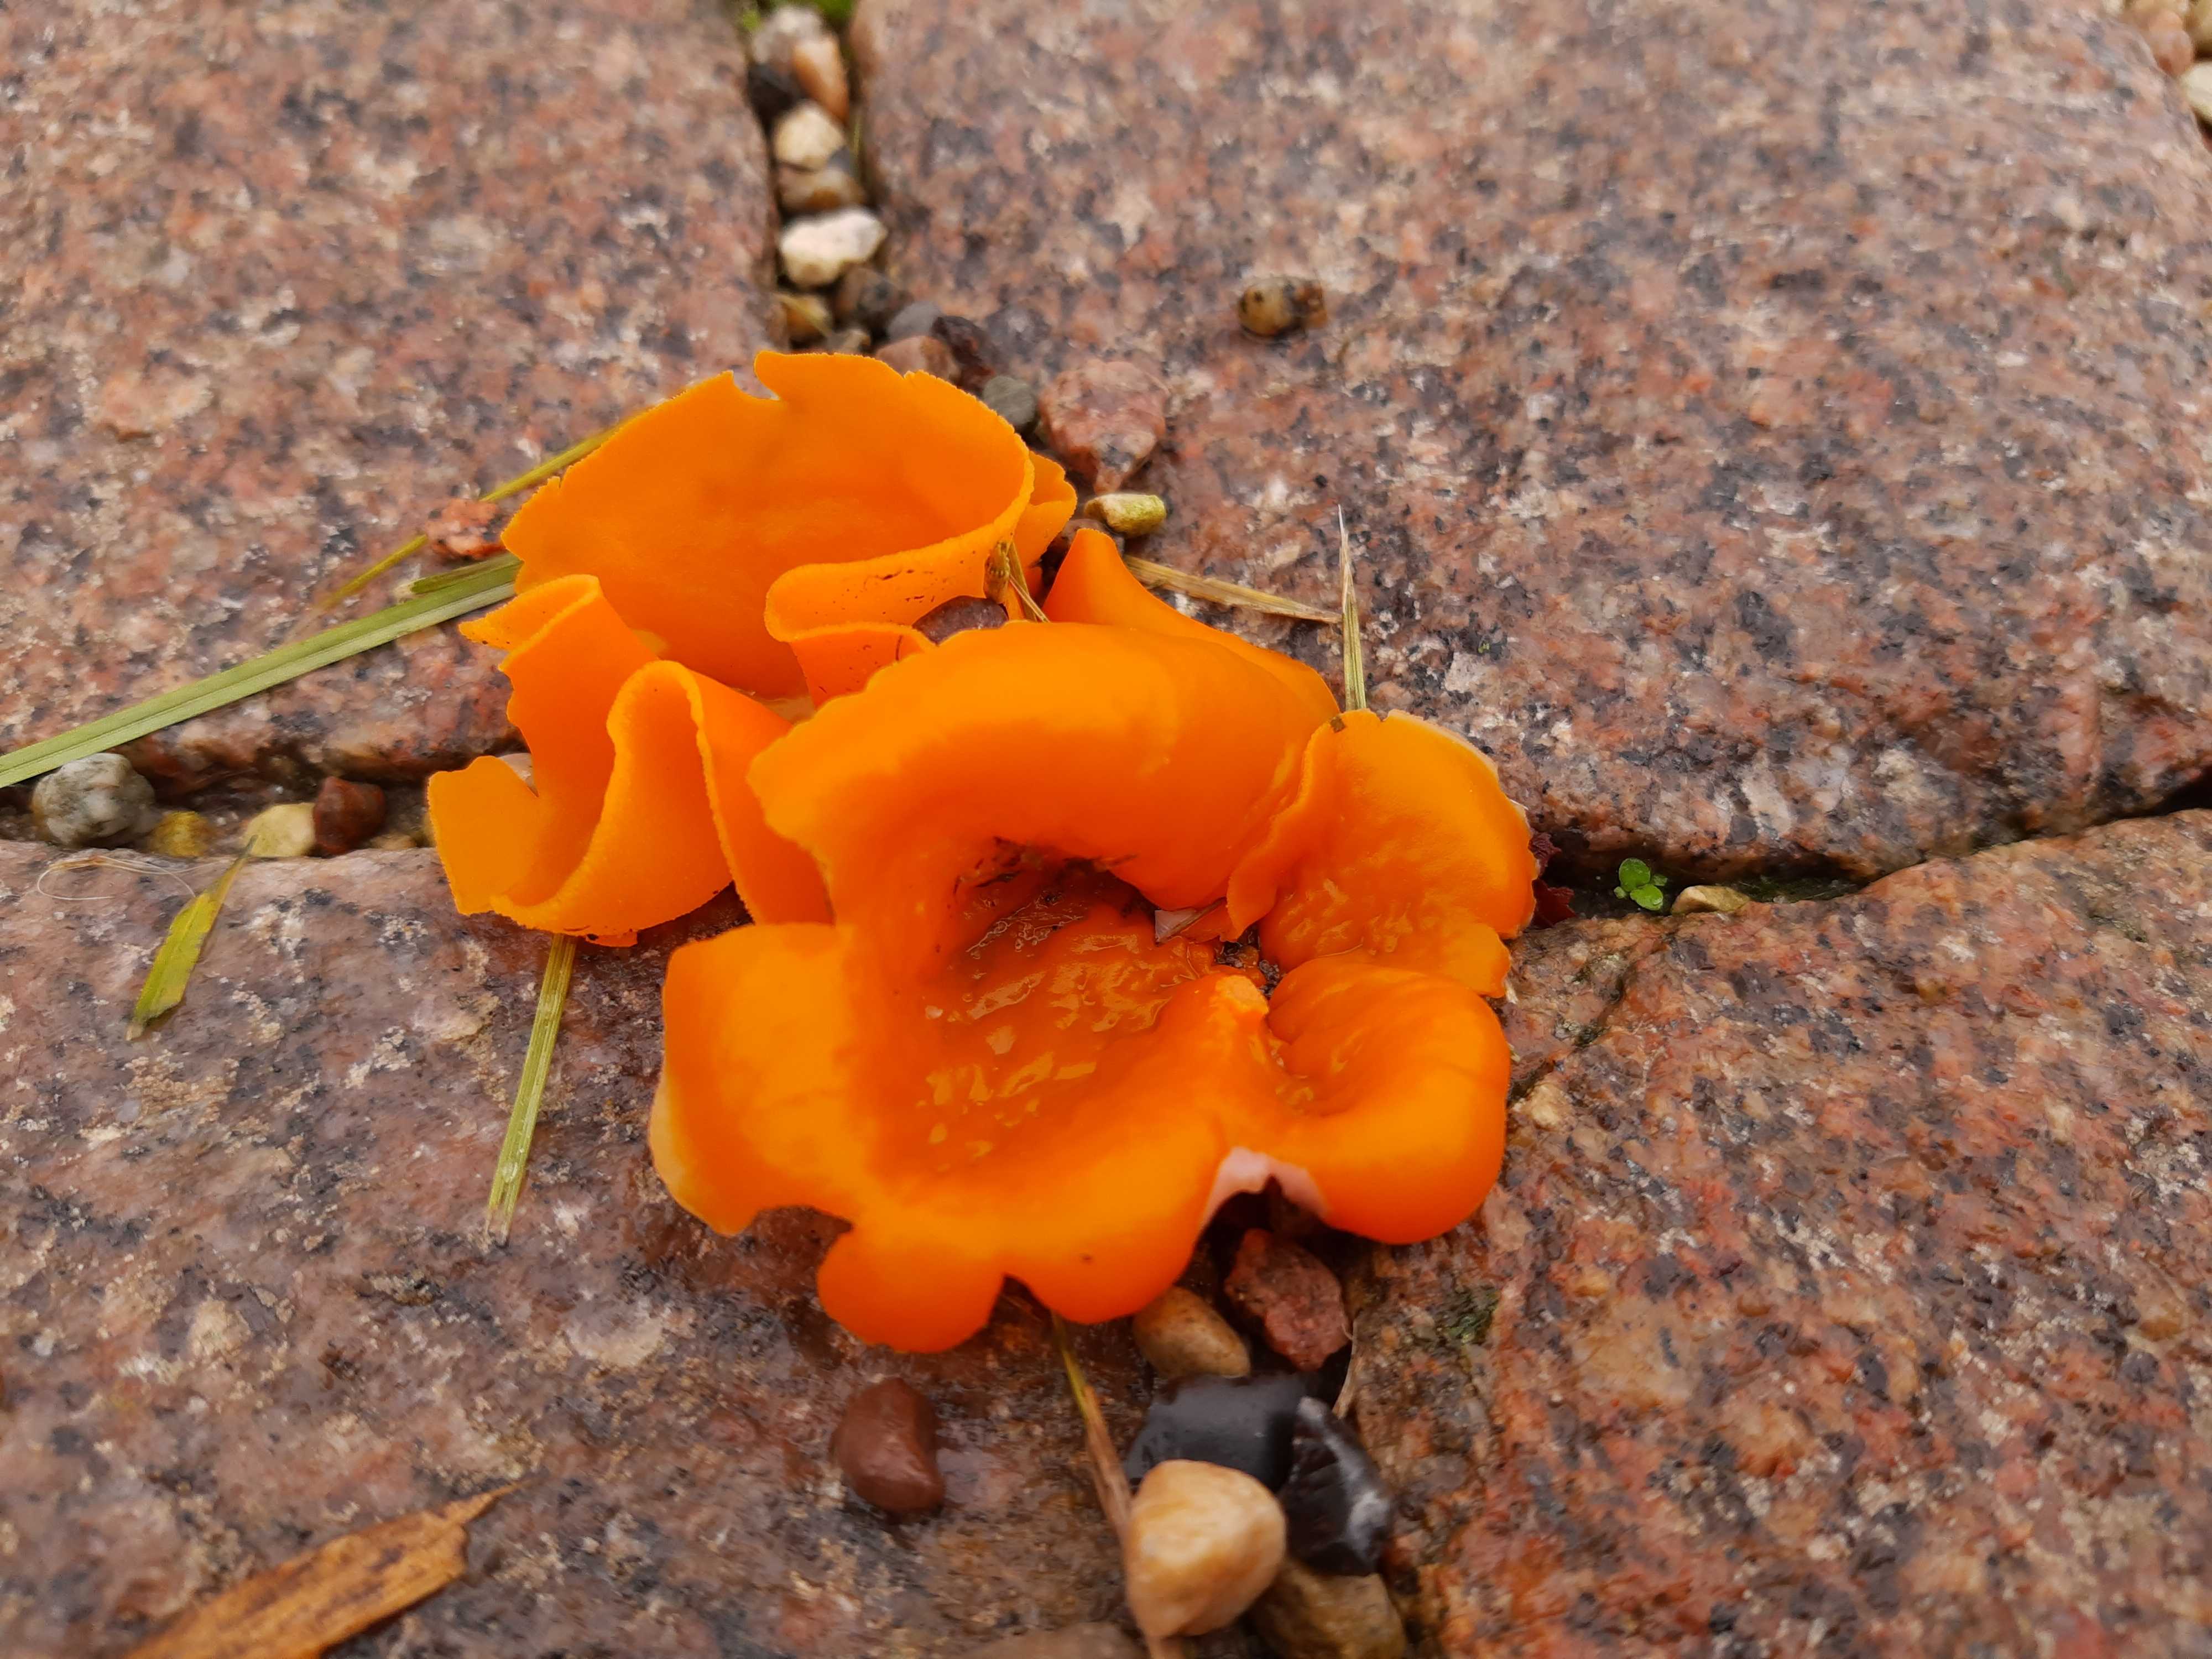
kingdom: Fungi
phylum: Ascomycota
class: Pezizomycetes
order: Pezizales
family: Pyronemataceae
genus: Aleuria
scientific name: Aleuria aurantia
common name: almindelig orangebæger
